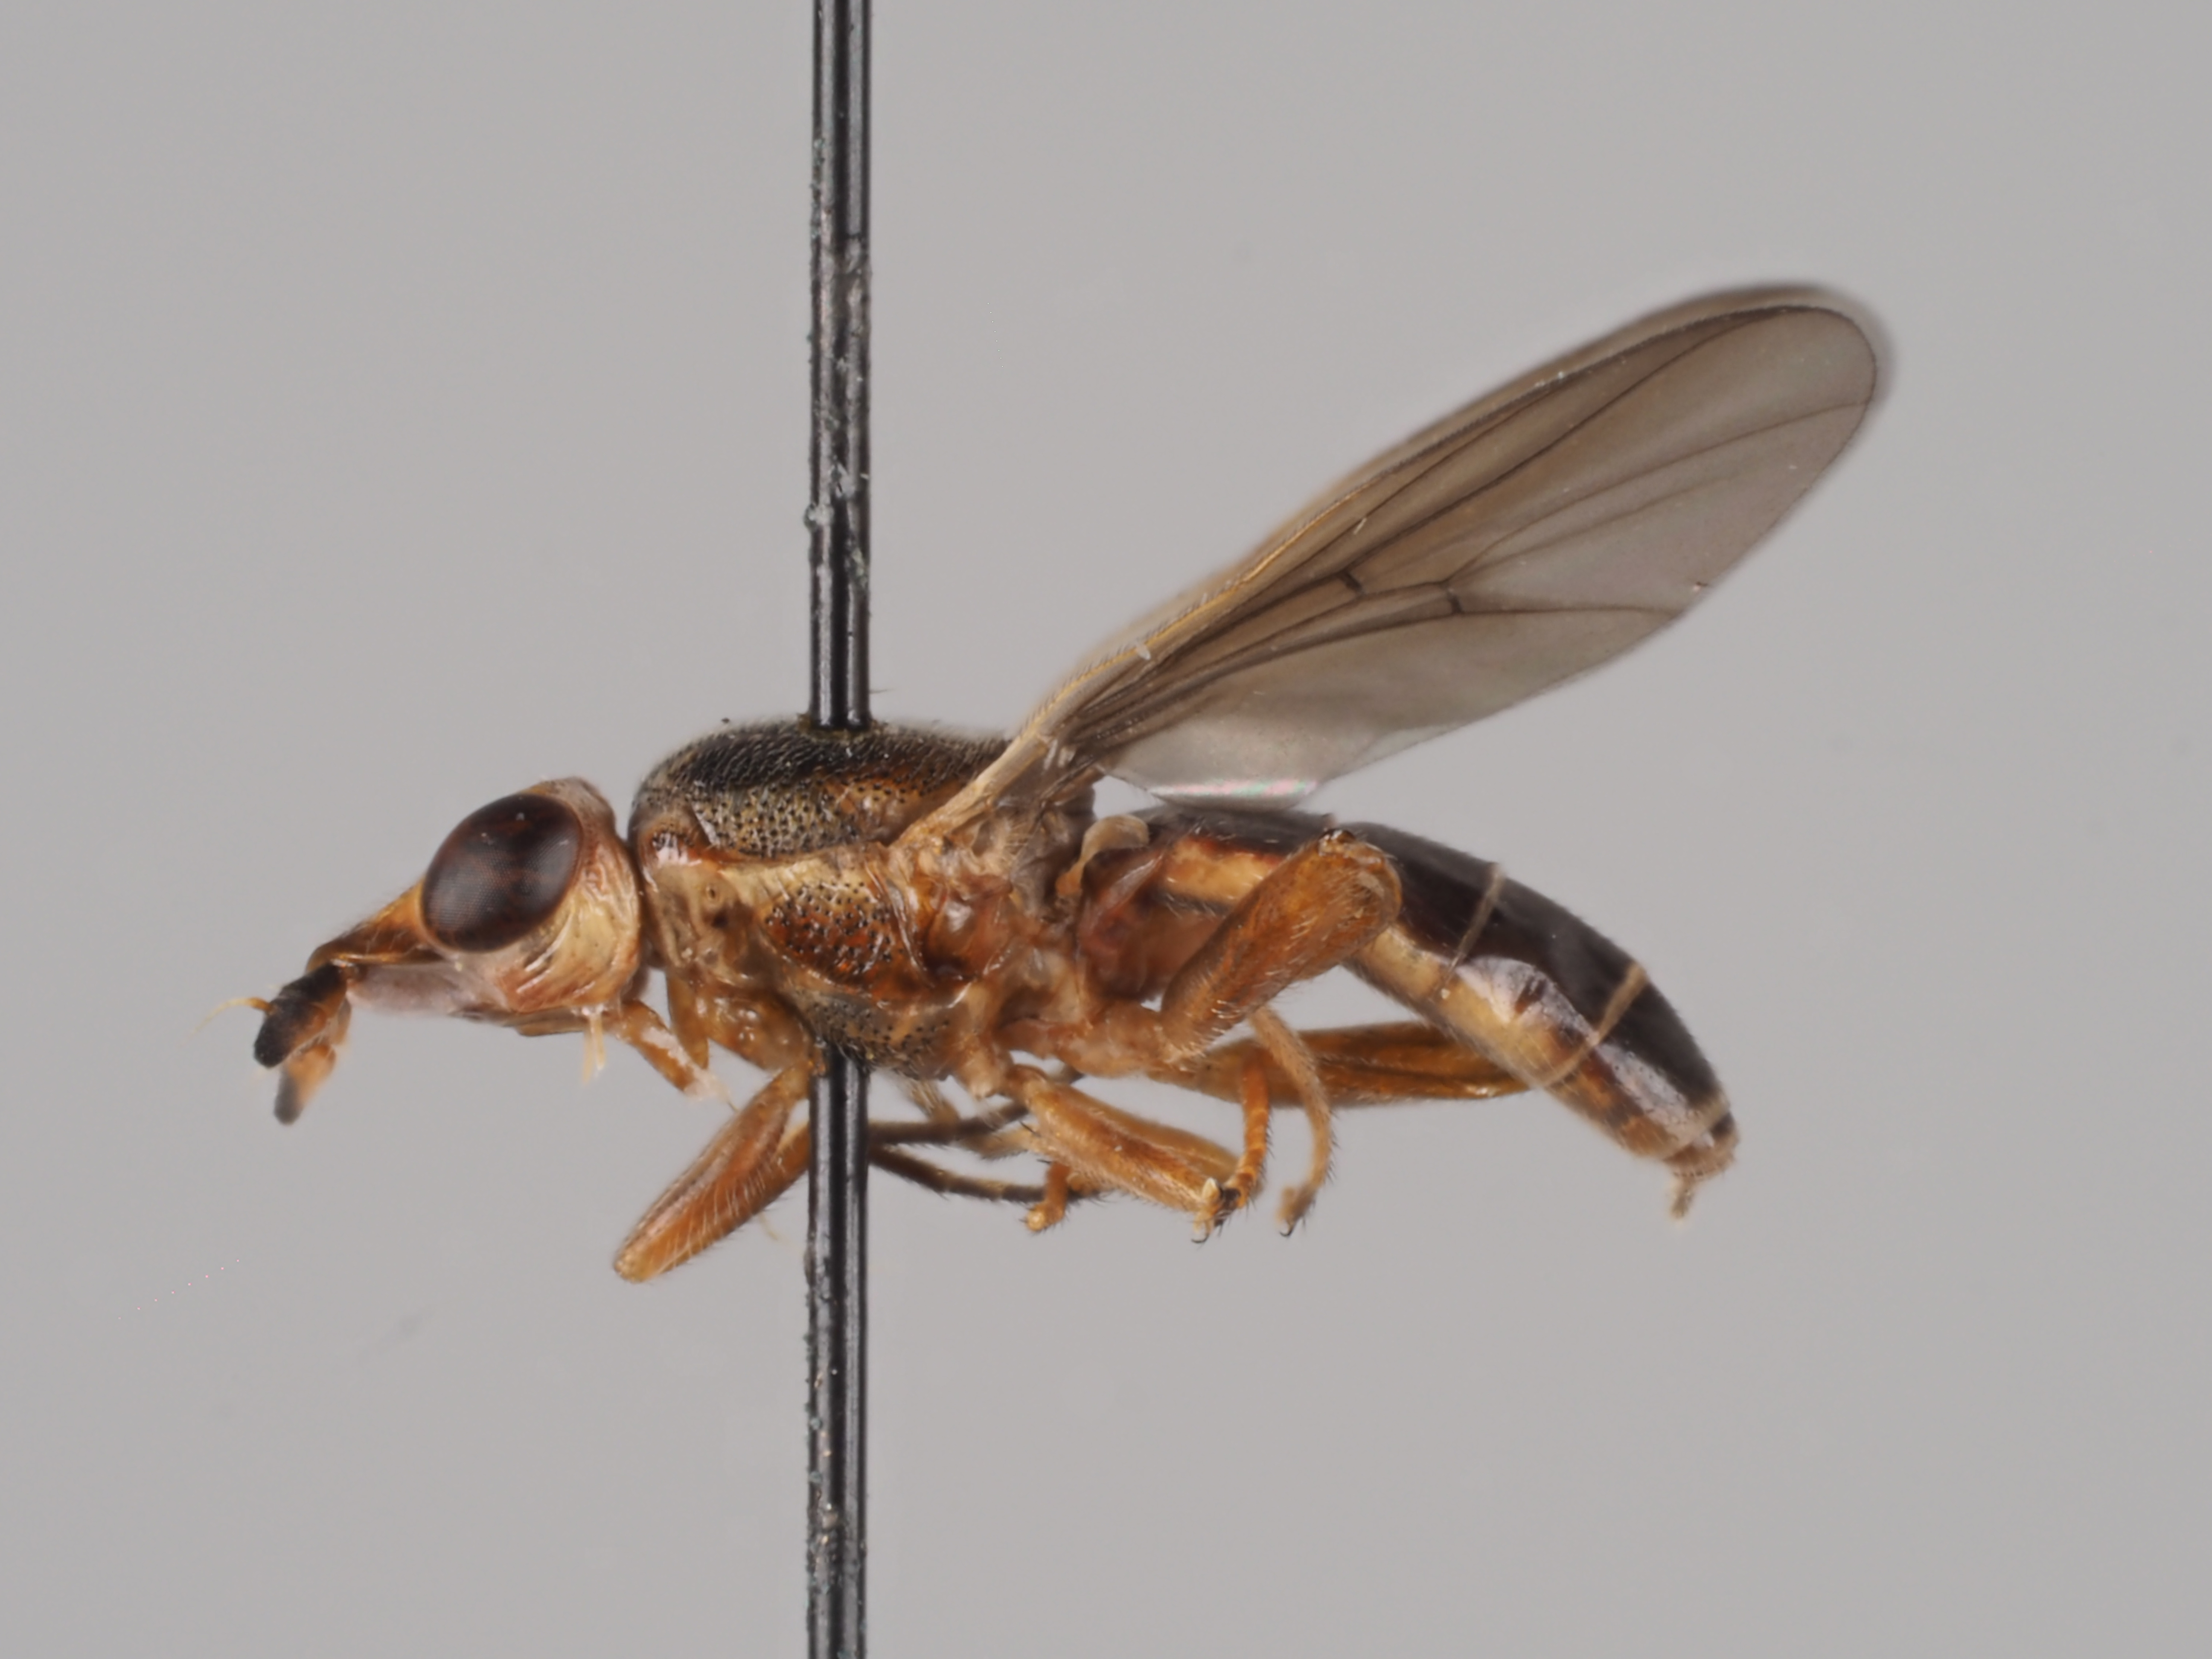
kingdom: Animalia
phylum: Arthropoda
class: Insecta
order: Diptera
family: Chloropidae
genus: Platycephala
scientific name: Platycephala planifrons
